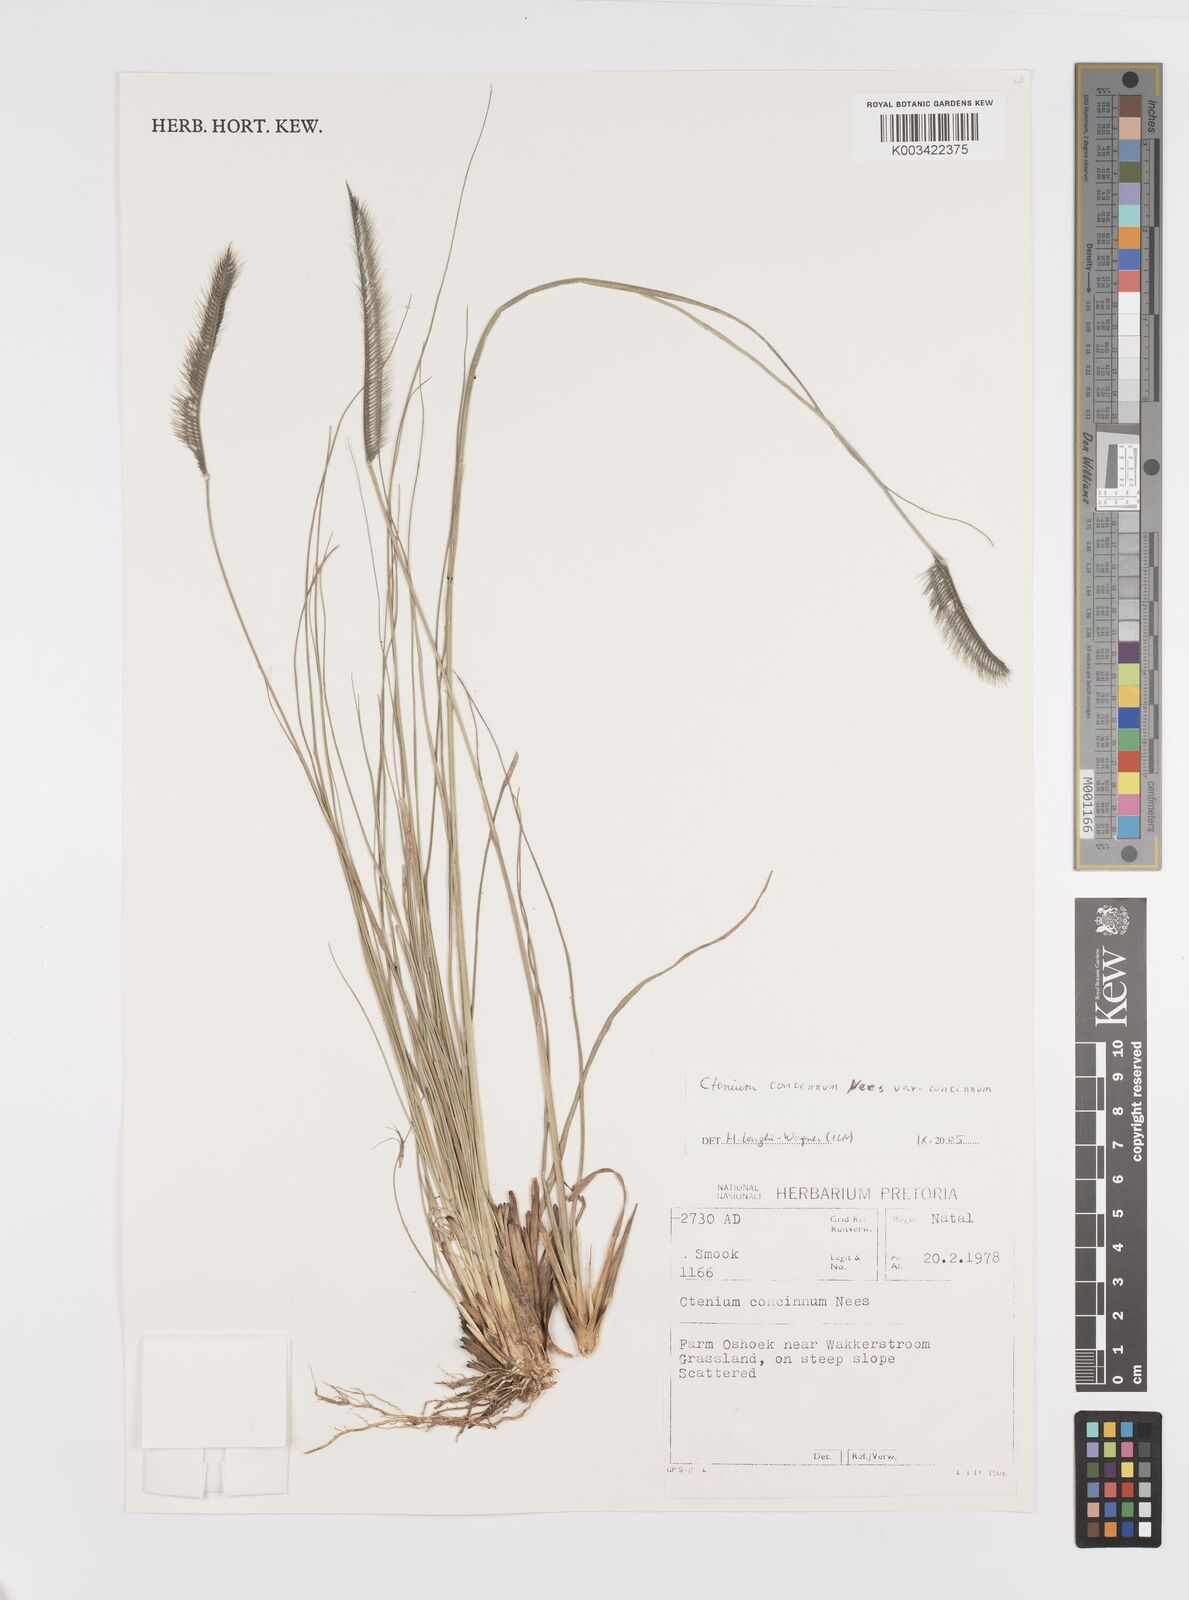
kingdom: Plantae
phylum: Tracheophyta
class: Liliopsida
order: Poales
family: Poaceae
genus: Ctenium
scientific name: Ctenium concinnum
